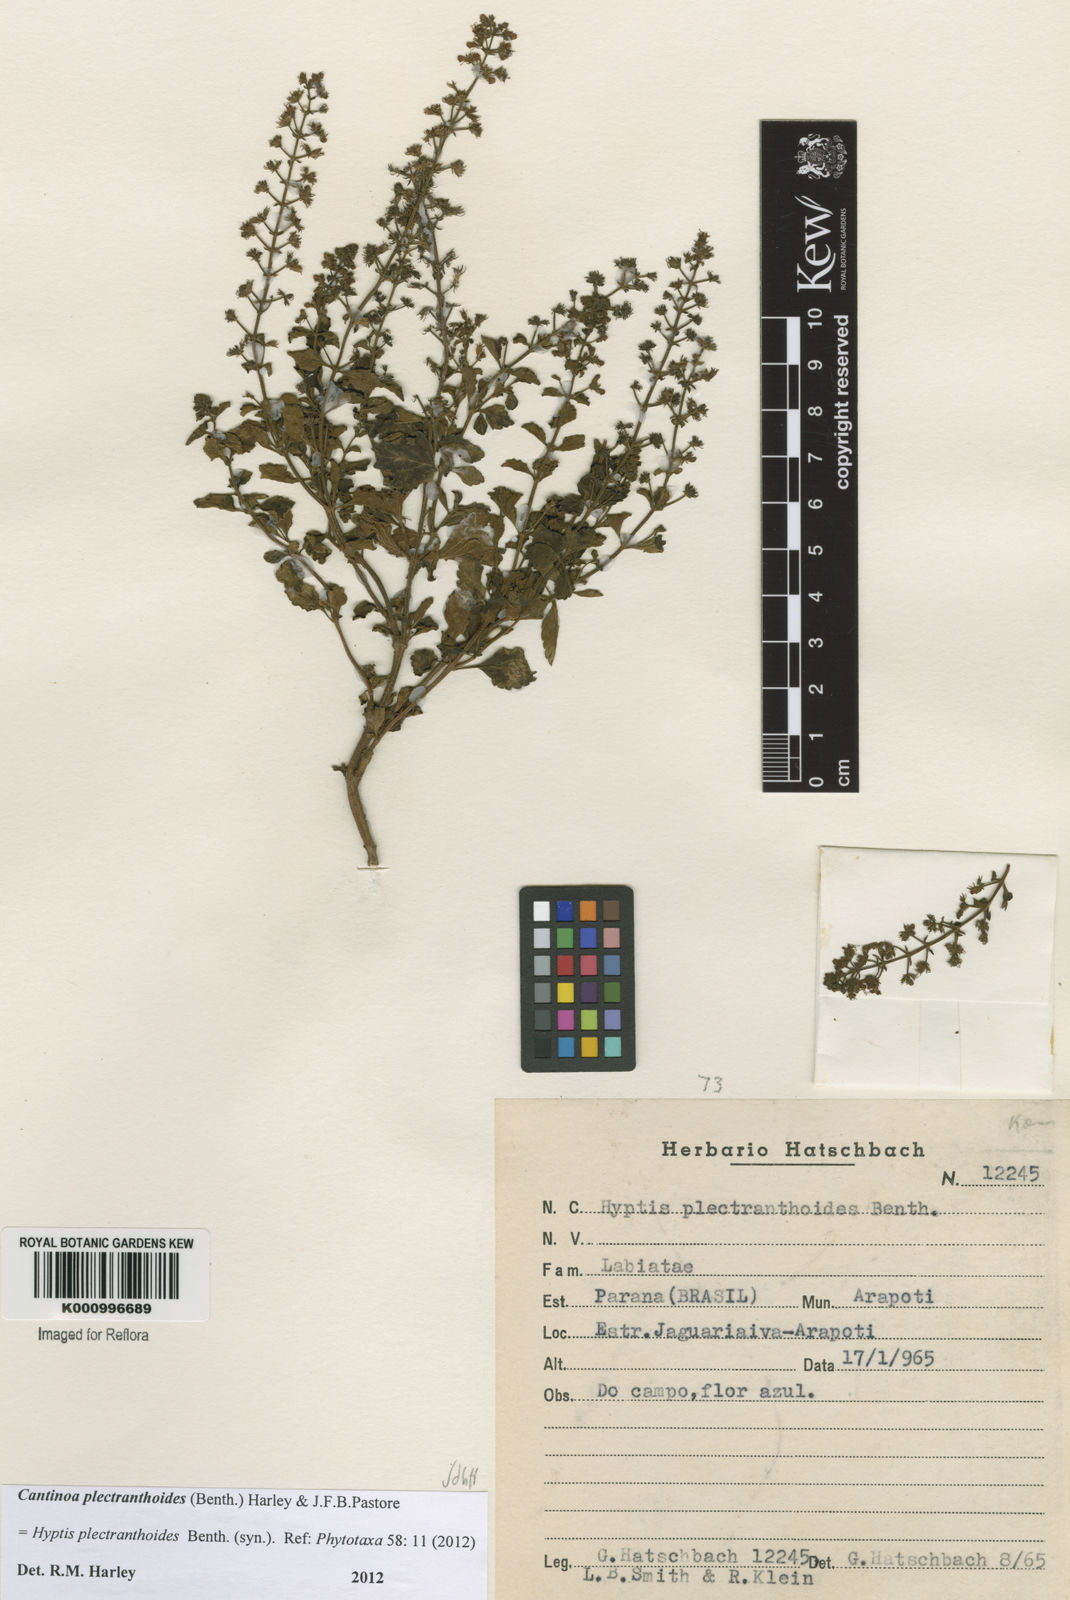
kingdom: Plantae
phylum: Tracheophyta
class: Magnoliopsida
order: Lamiales
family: Lamiaceae
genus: Cantinoa
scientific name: Cantinoa plectranthoides
